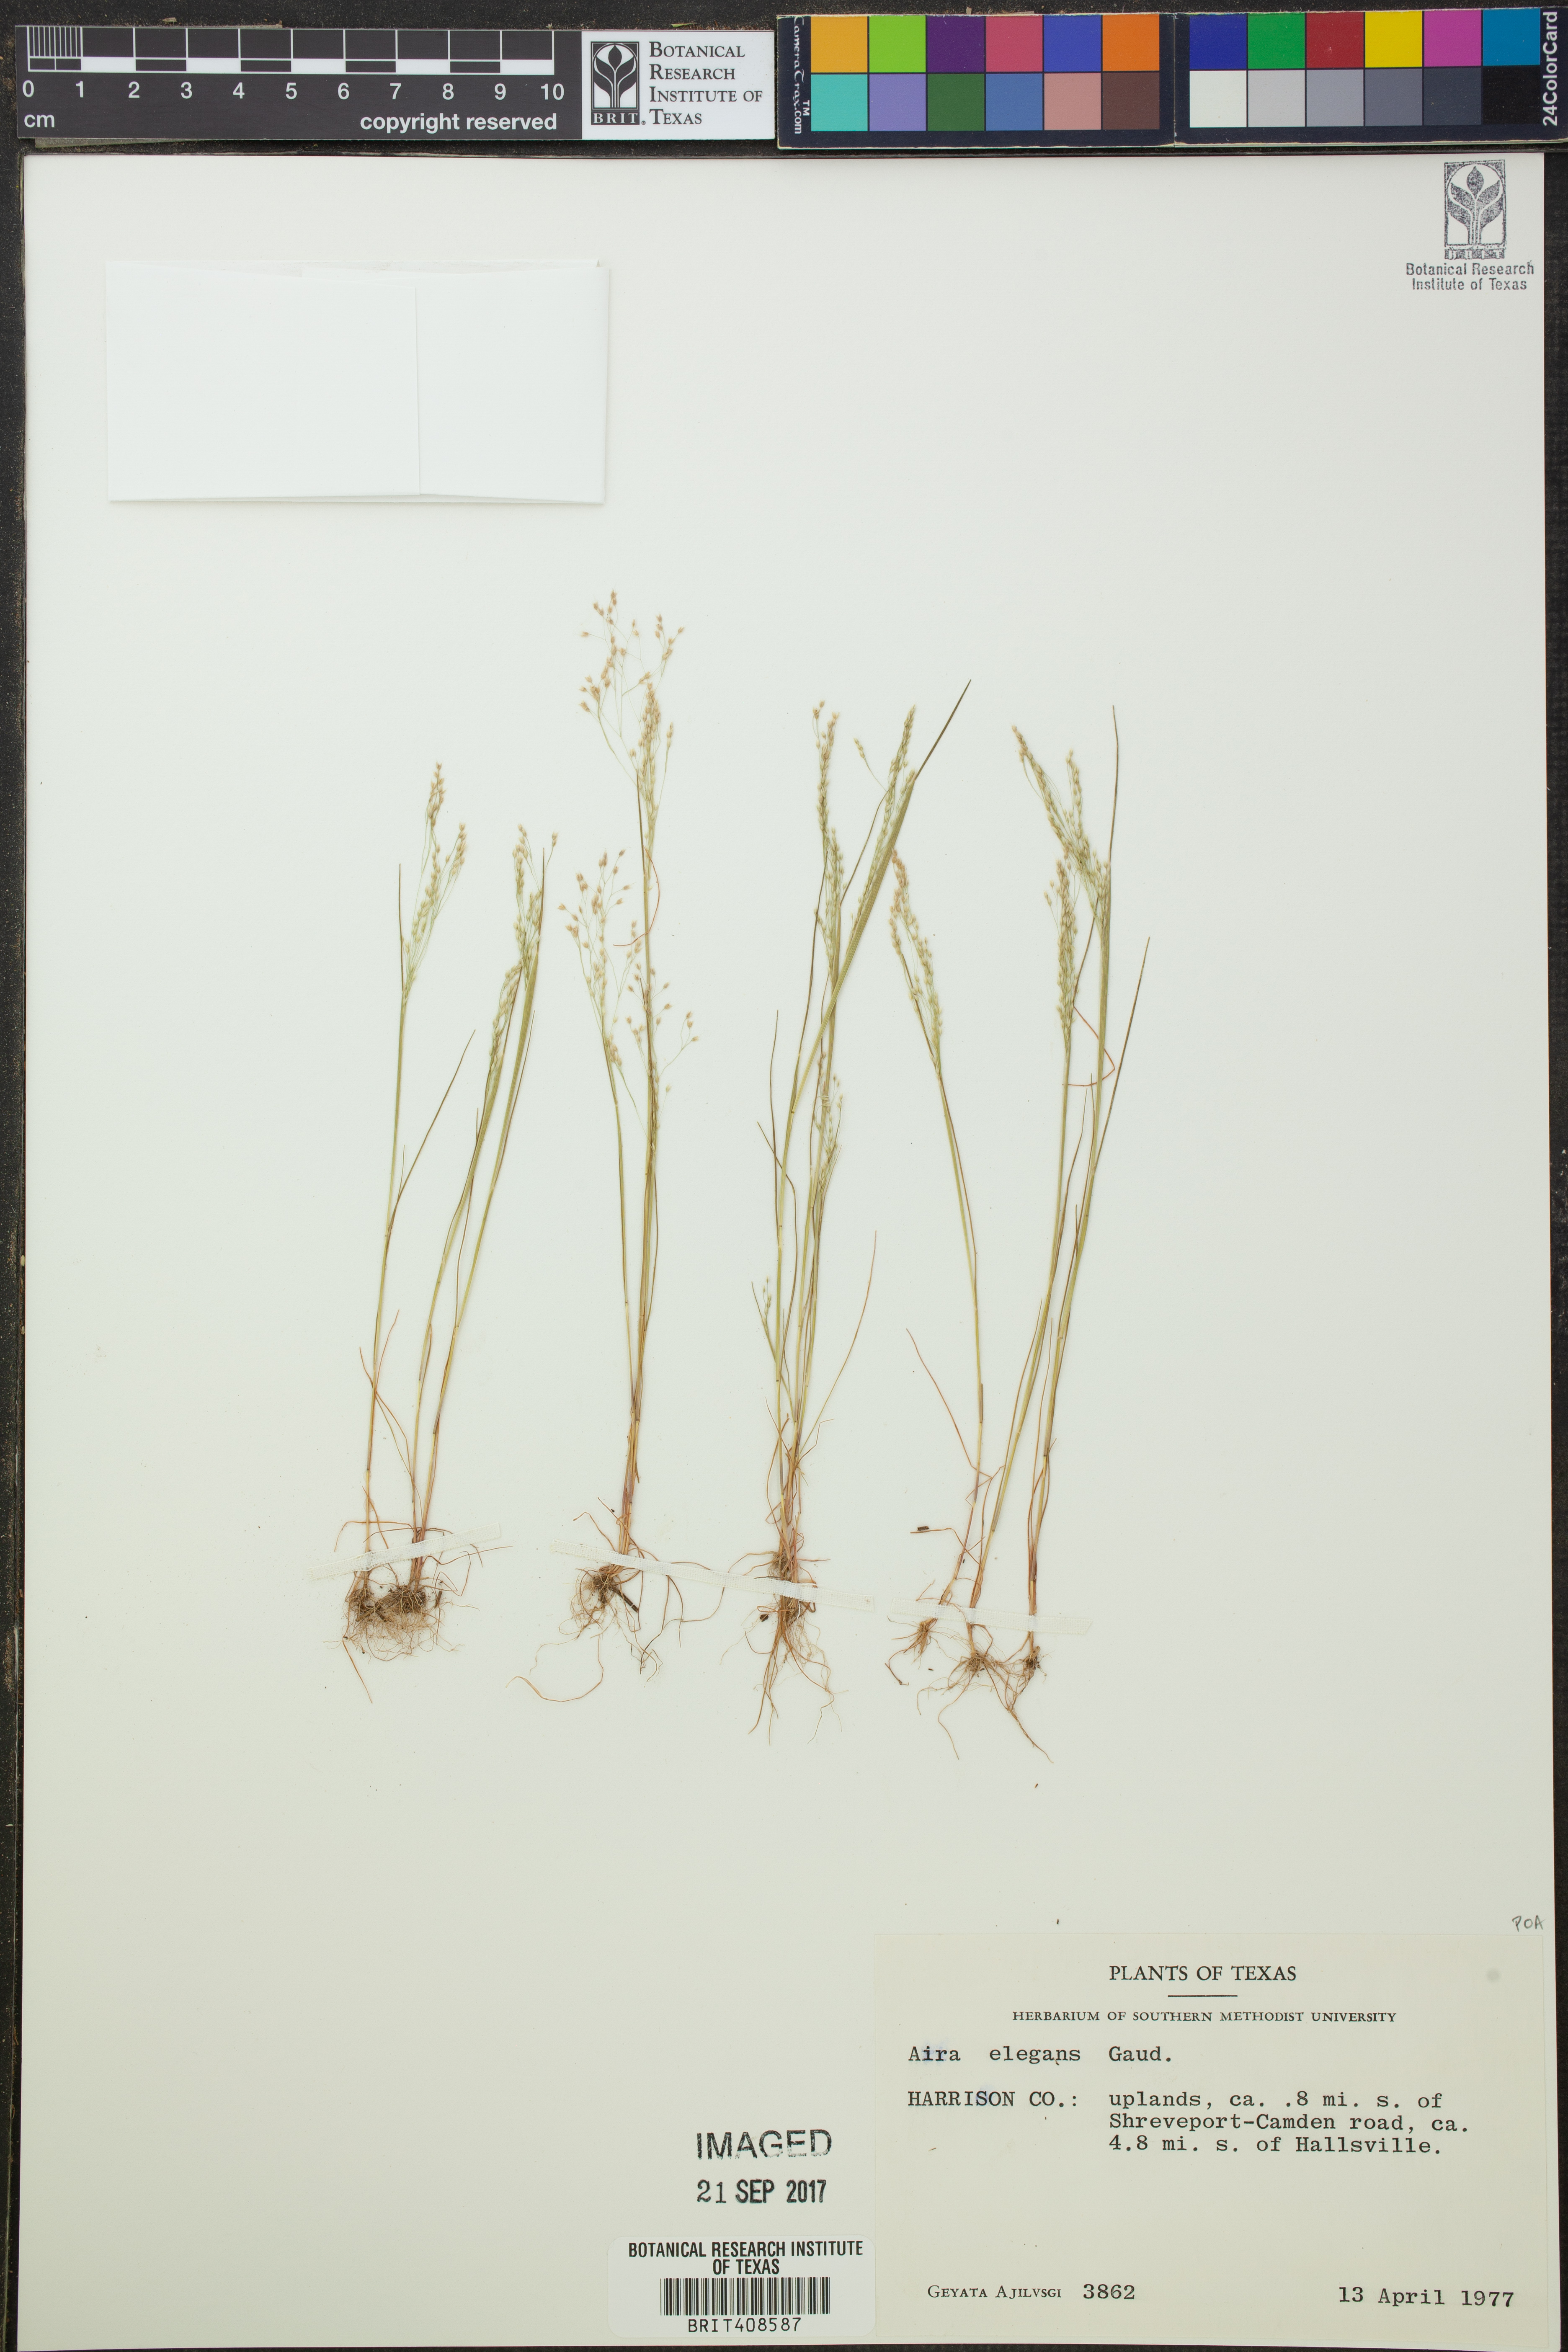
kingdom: Plantae
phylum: Tracheophyta
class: Liliopsida
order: Poales
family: Poaceae
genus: Aira
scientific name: Aira elegans
